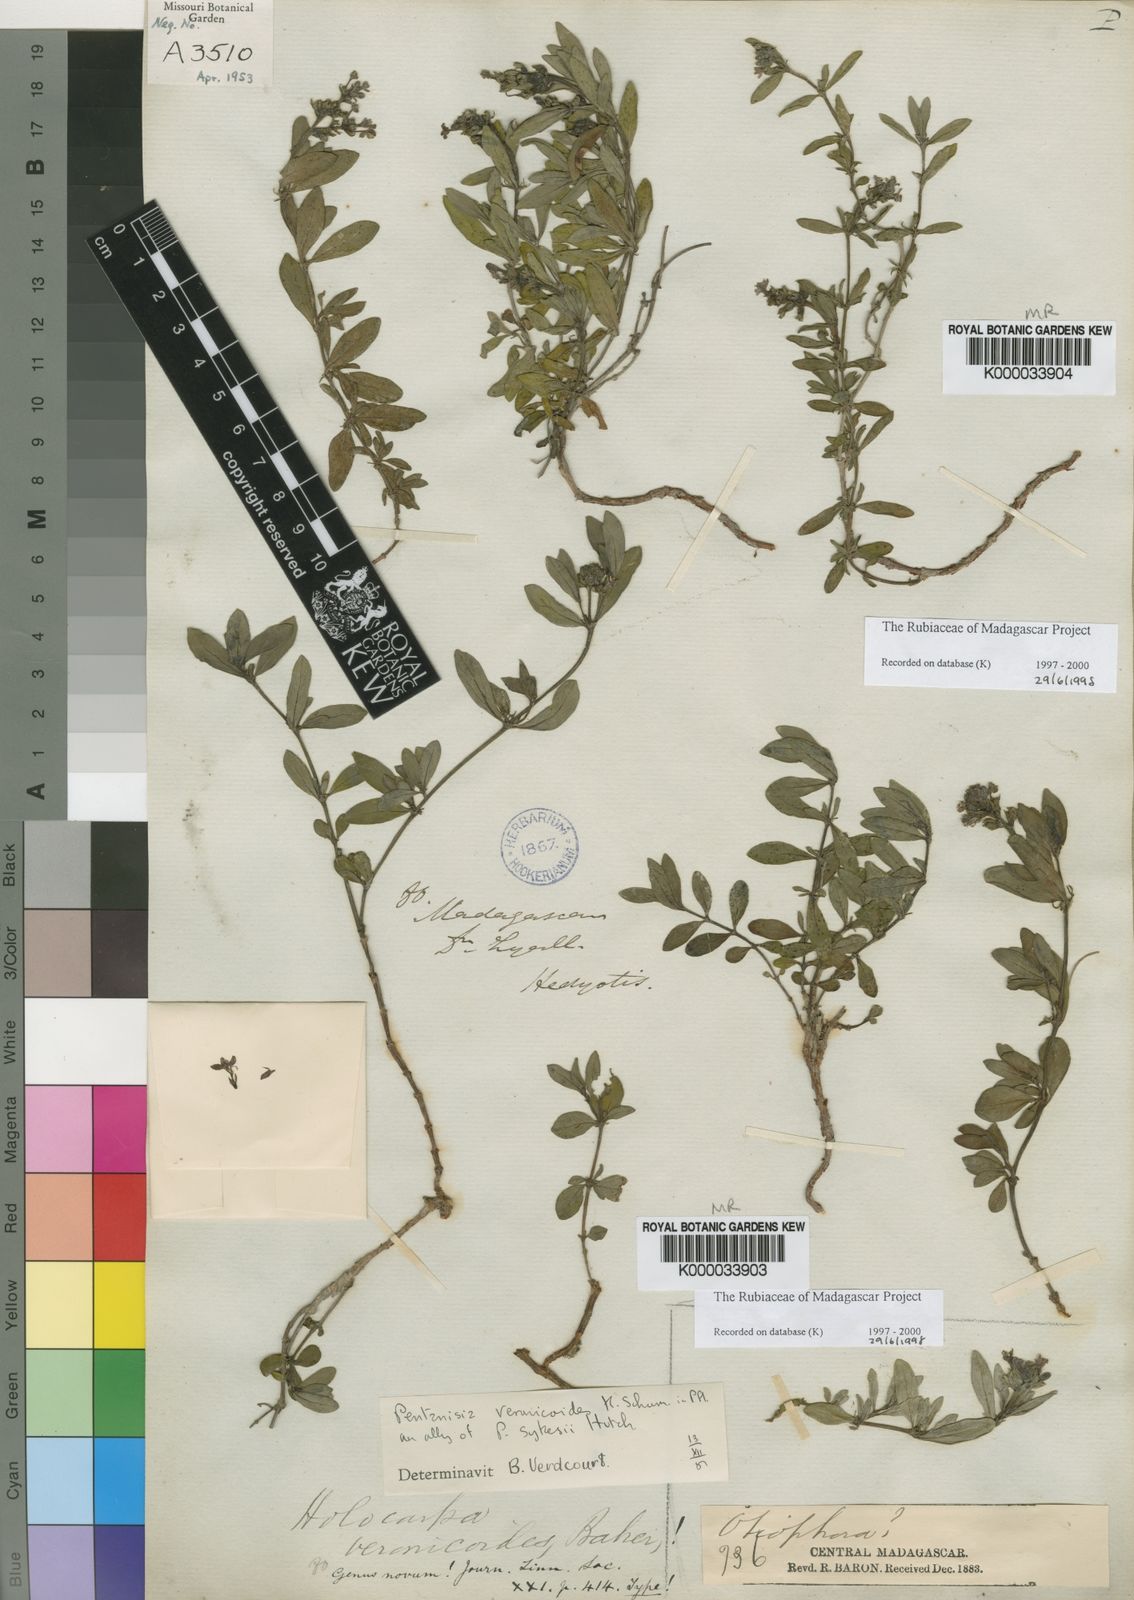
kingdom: Plantae
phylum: Tracheophyta
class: Magnoliopsida
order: Gentianales
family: Rubiaceae
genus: Pentanisia
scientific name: Pentanisia veronicoides
